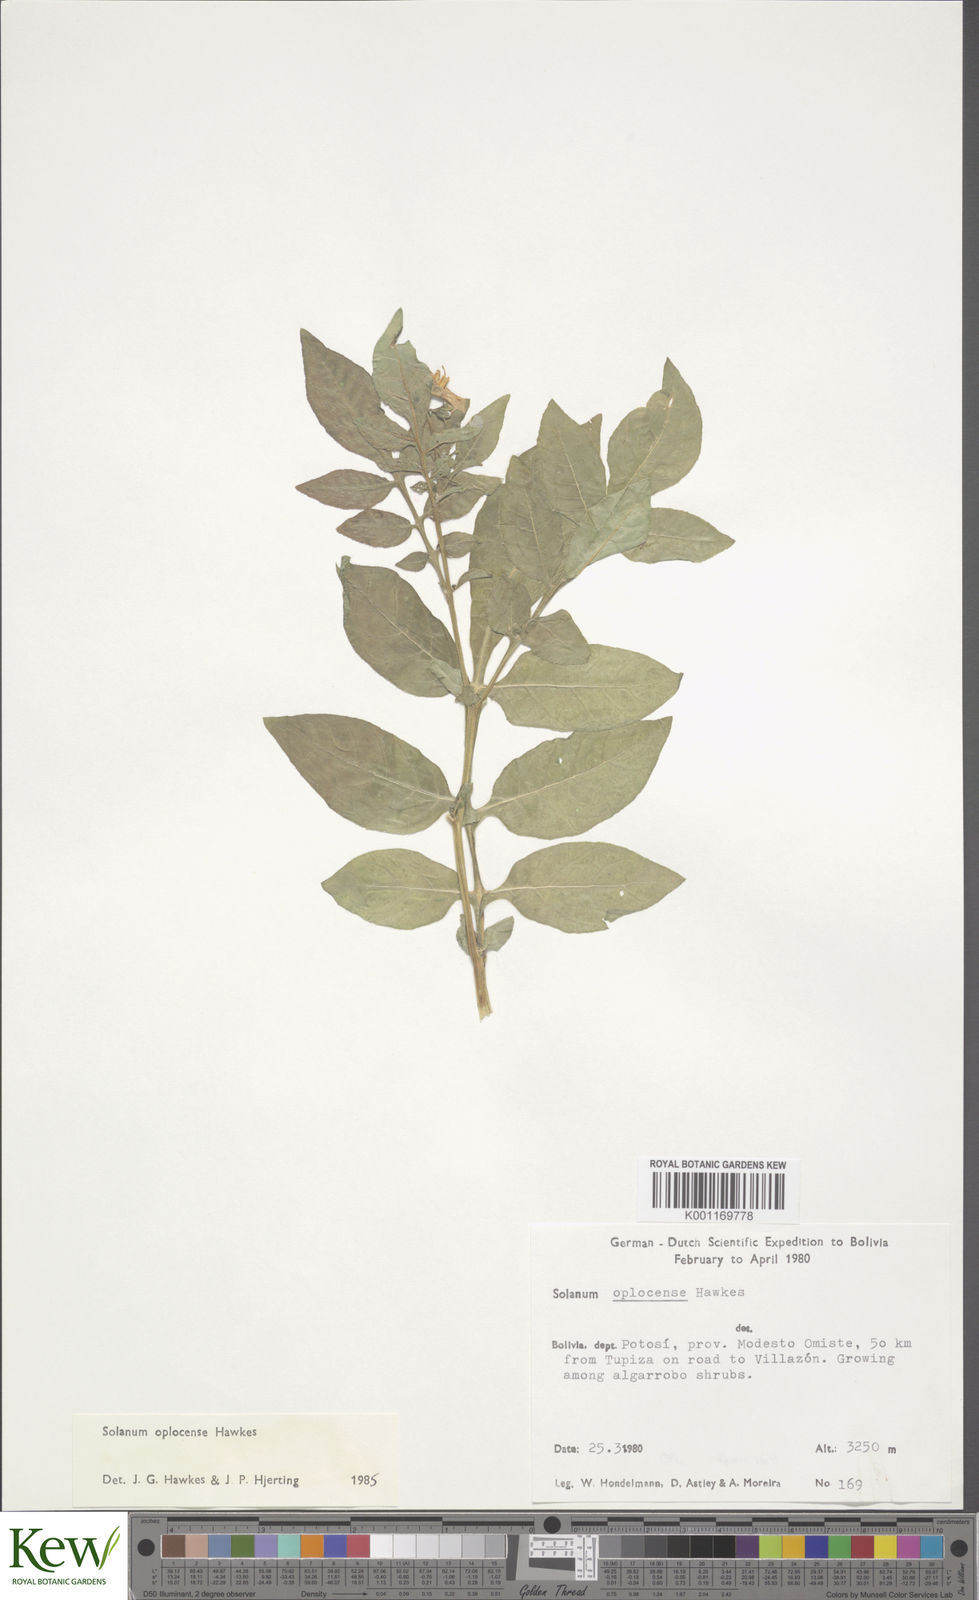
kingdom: Plantae
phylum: Tracheophyta
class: Magnoliopsida
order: Solanales
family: Solanaceae
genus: Solanum
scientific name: Solanum brevicaule
